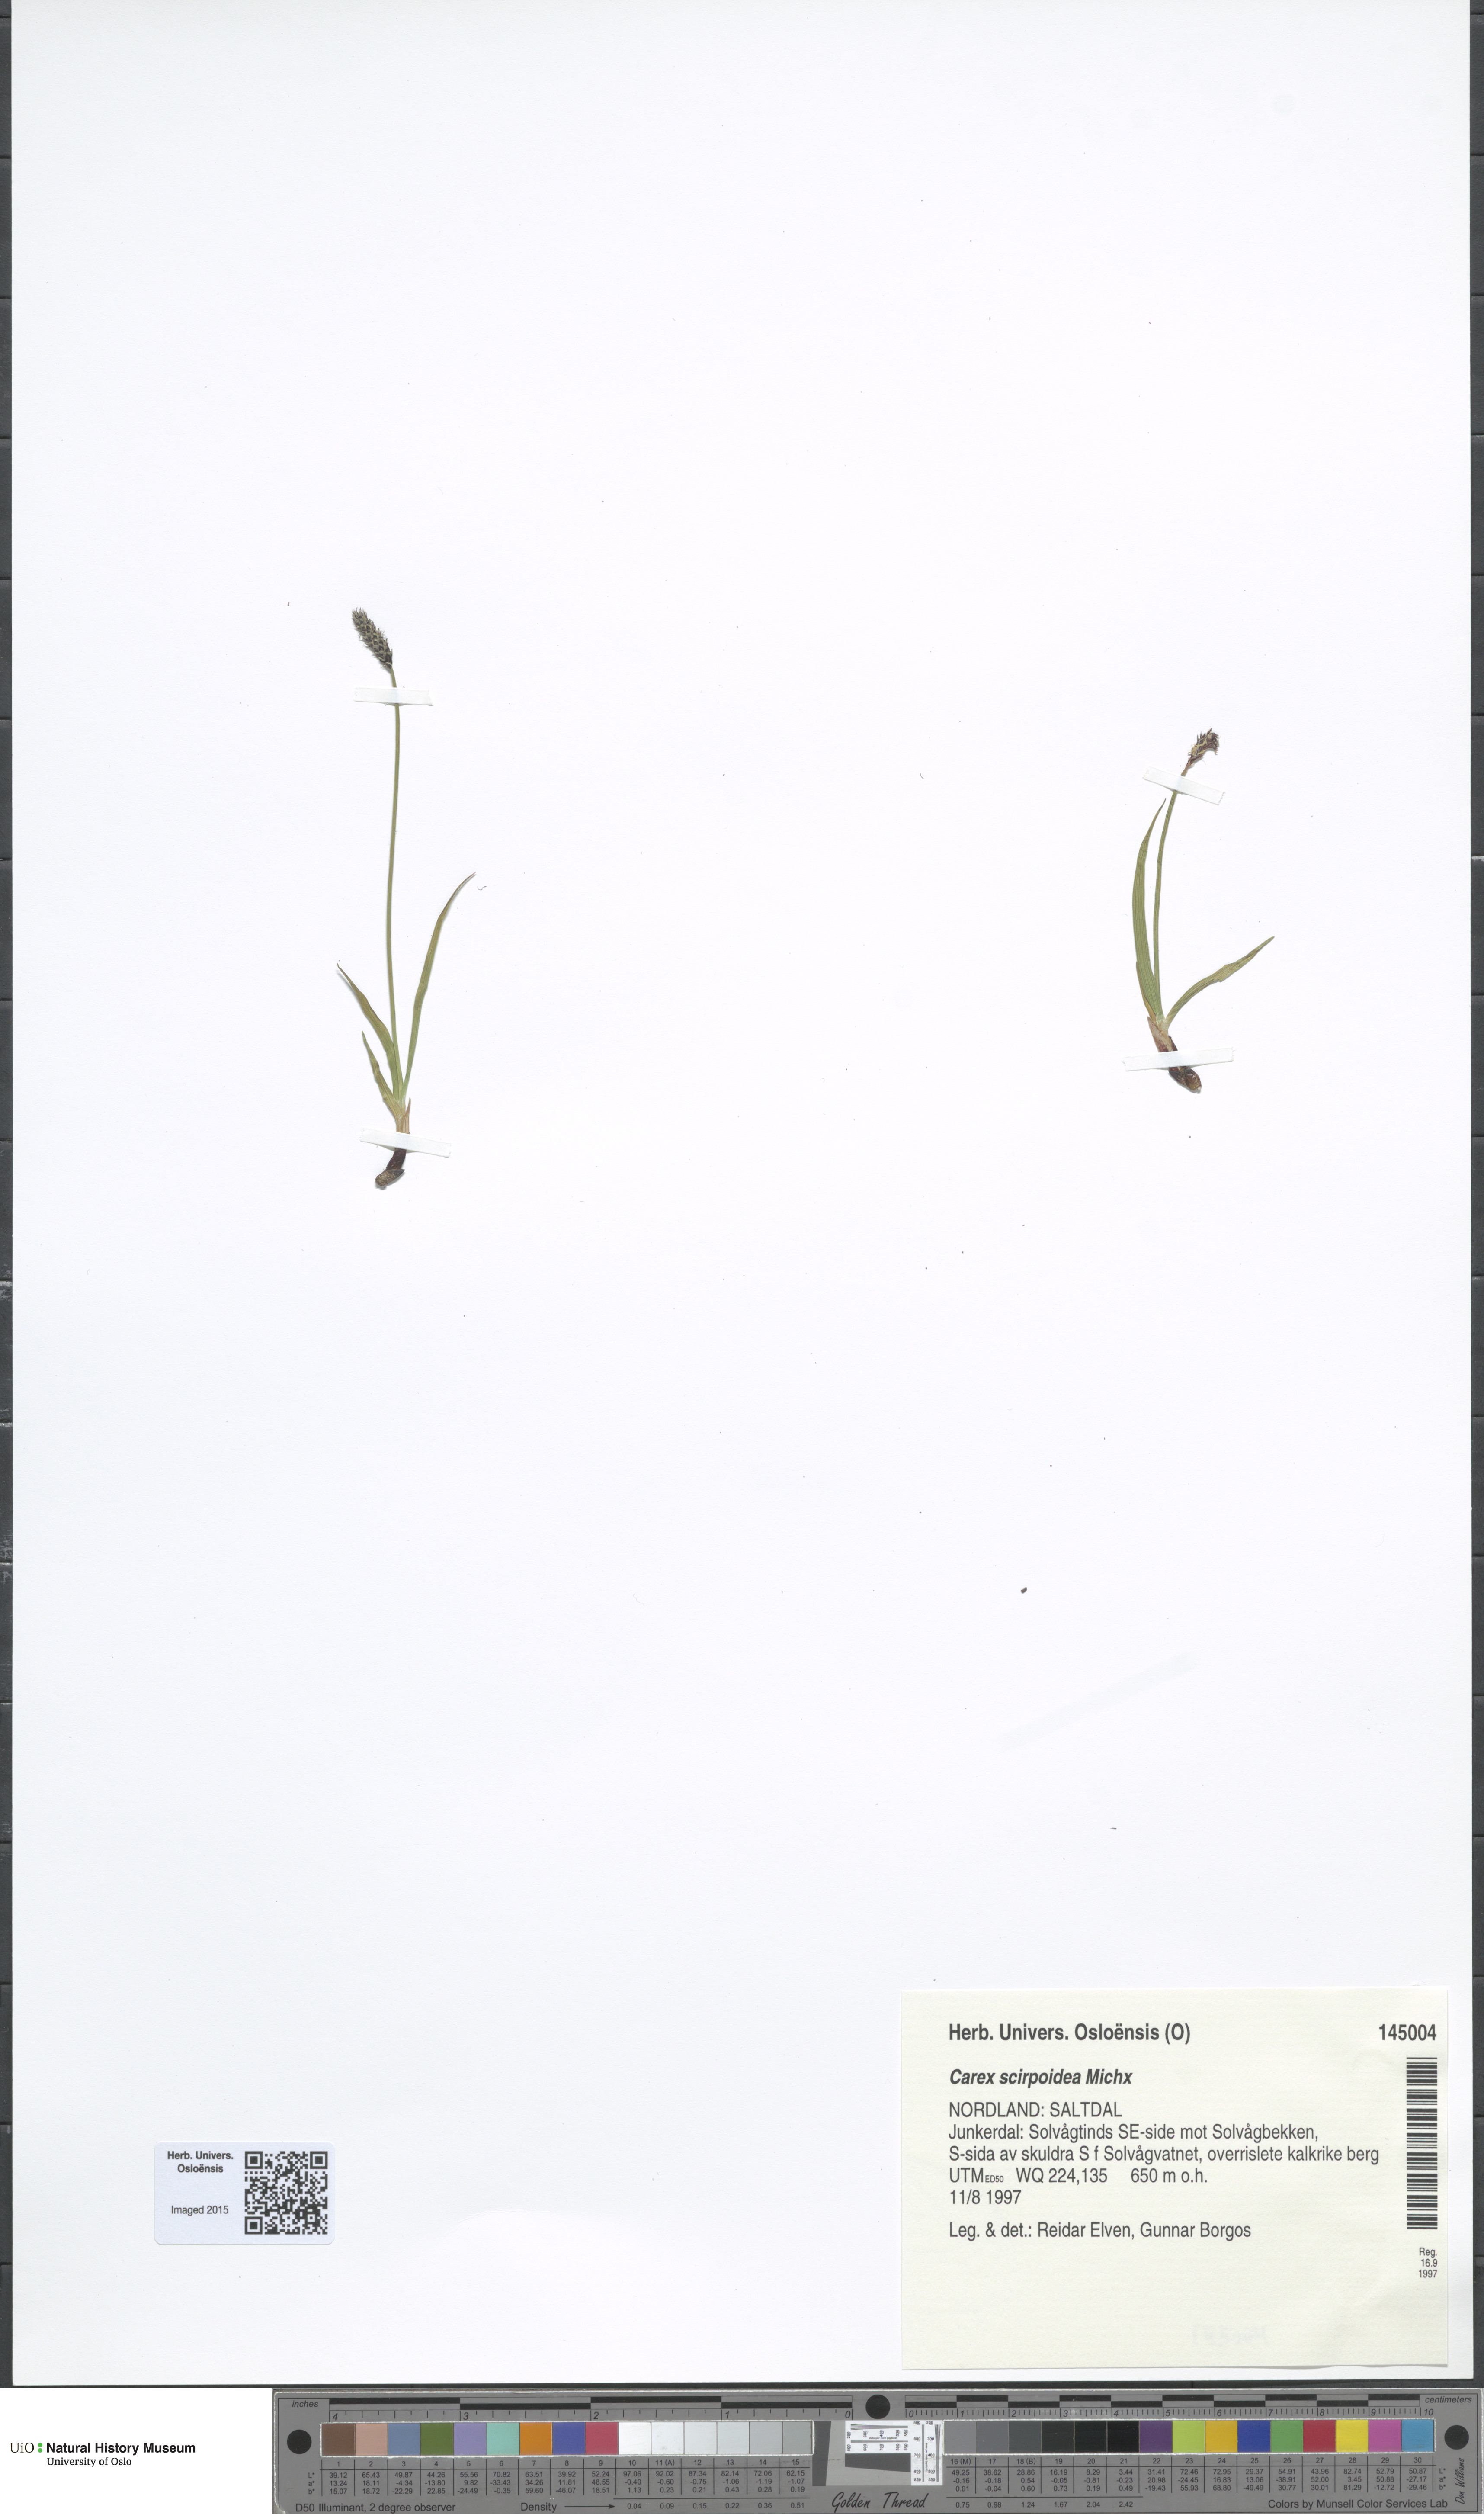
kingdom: Plantae
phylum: Tracheophyta
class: Liliopsida
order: Poales
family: Cyperaceae
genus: Carex
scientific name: Carex scirpoidea
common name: Canada single-spike sedge
